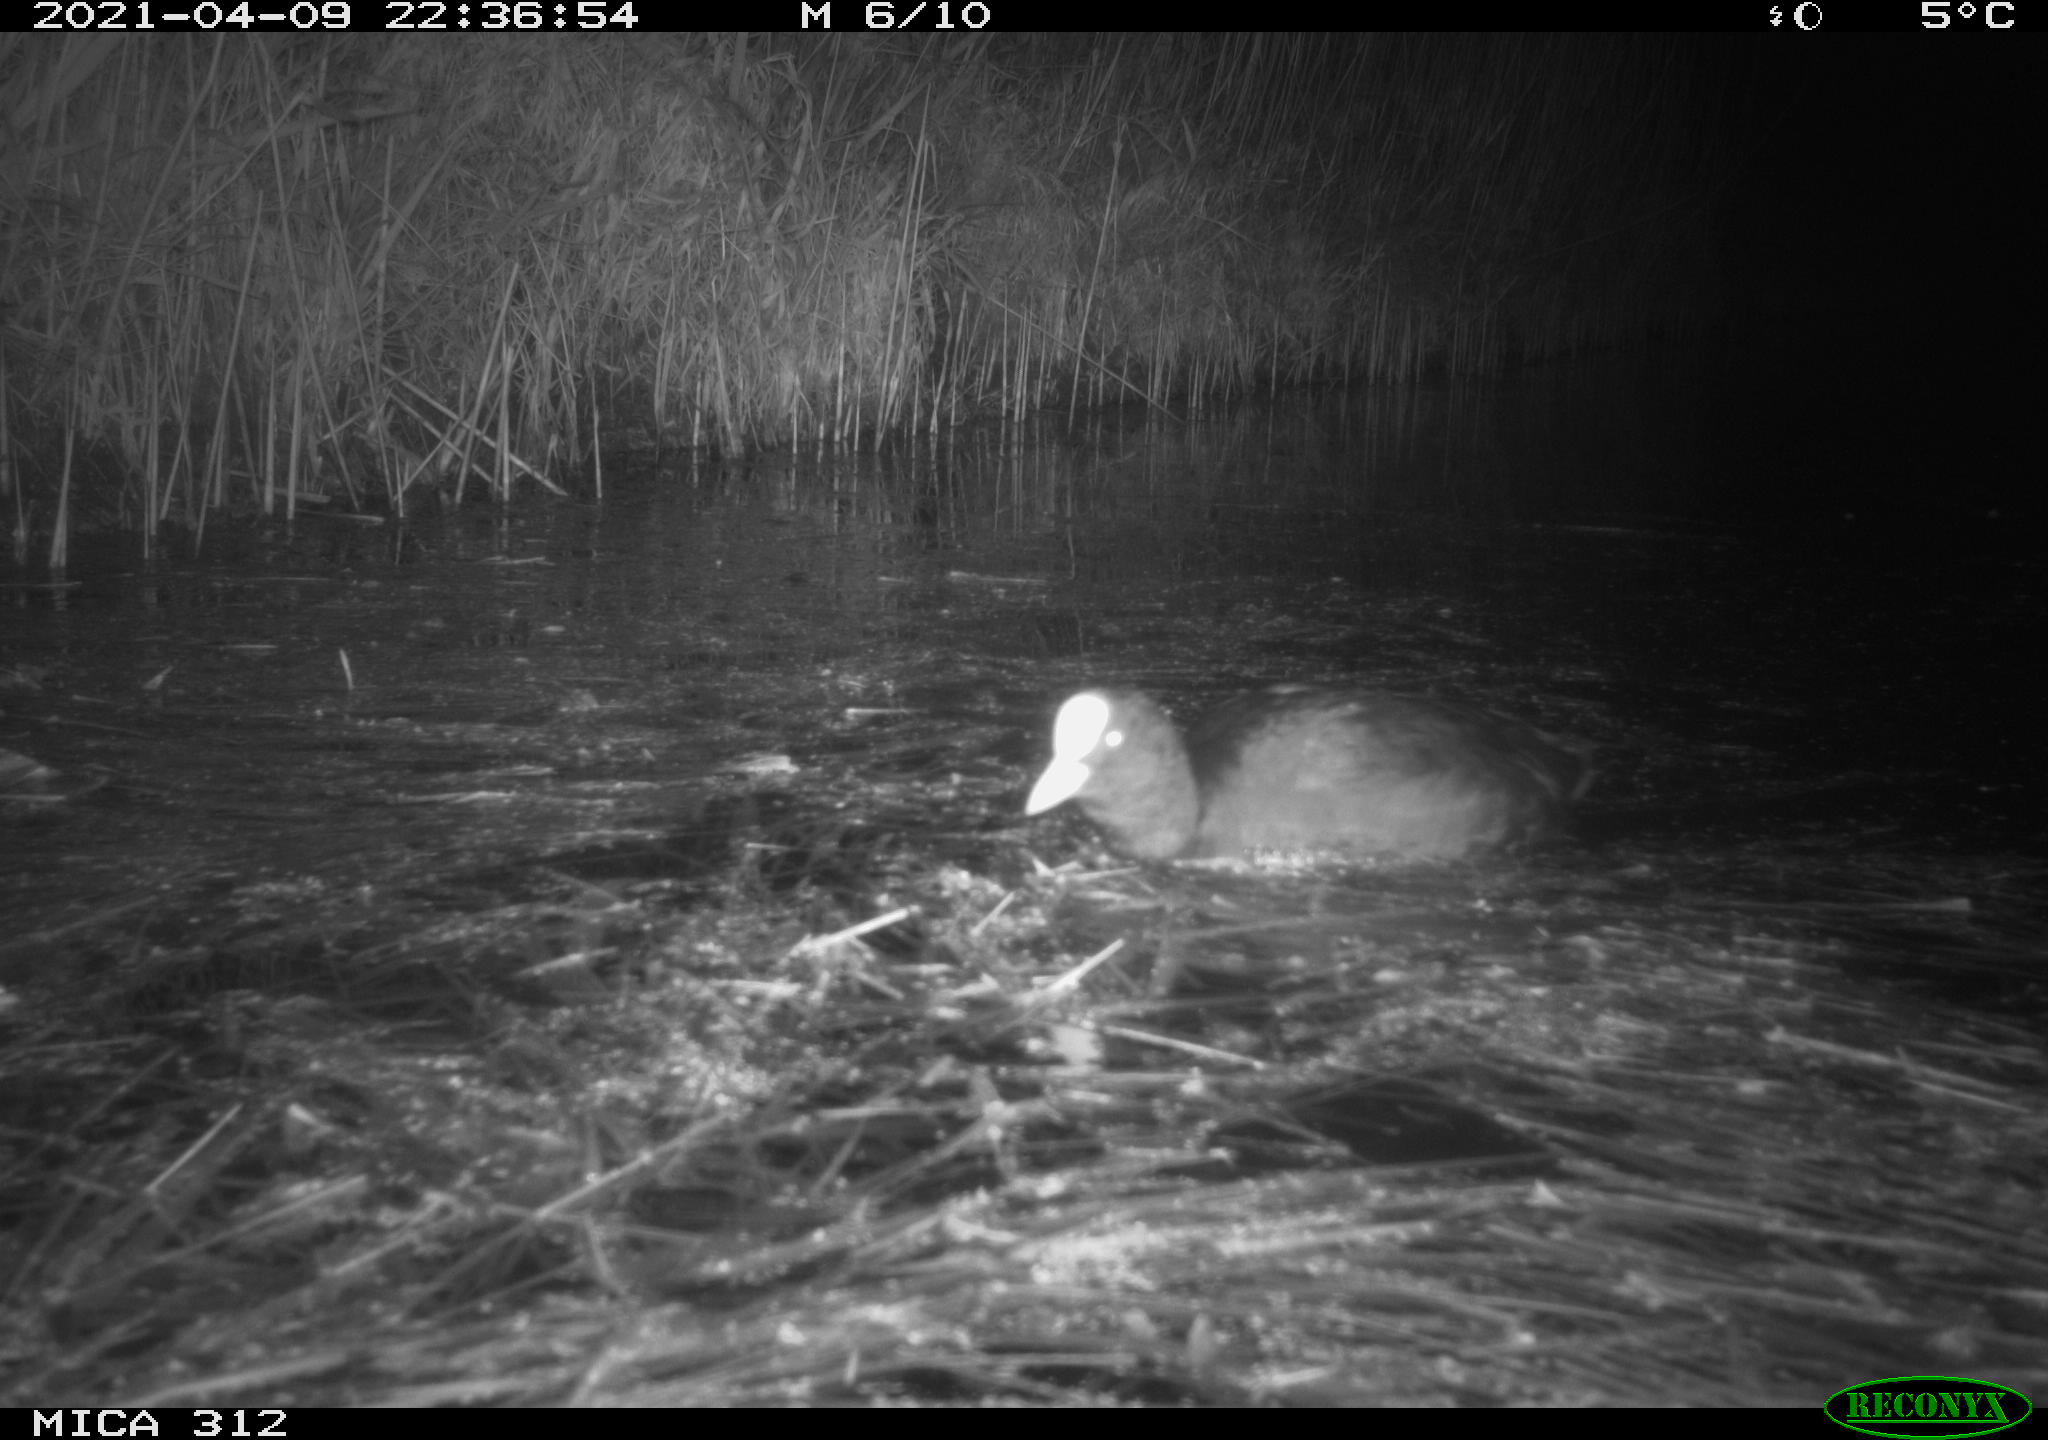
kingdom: Animalia
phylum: Chordata
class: Aves
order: Gruiformes
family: Rallidae
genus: Fulica
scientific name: Fulica atra
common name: Eurasian coot
